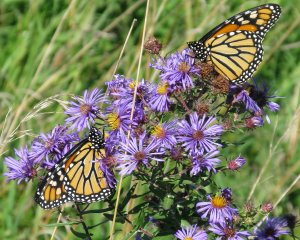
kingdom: Animalia
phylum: Arthropoda
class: Insecta
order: Lepidoptera
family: Nymphalidae
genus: Danaus
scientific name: Danaus plexippus
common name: Monarch
